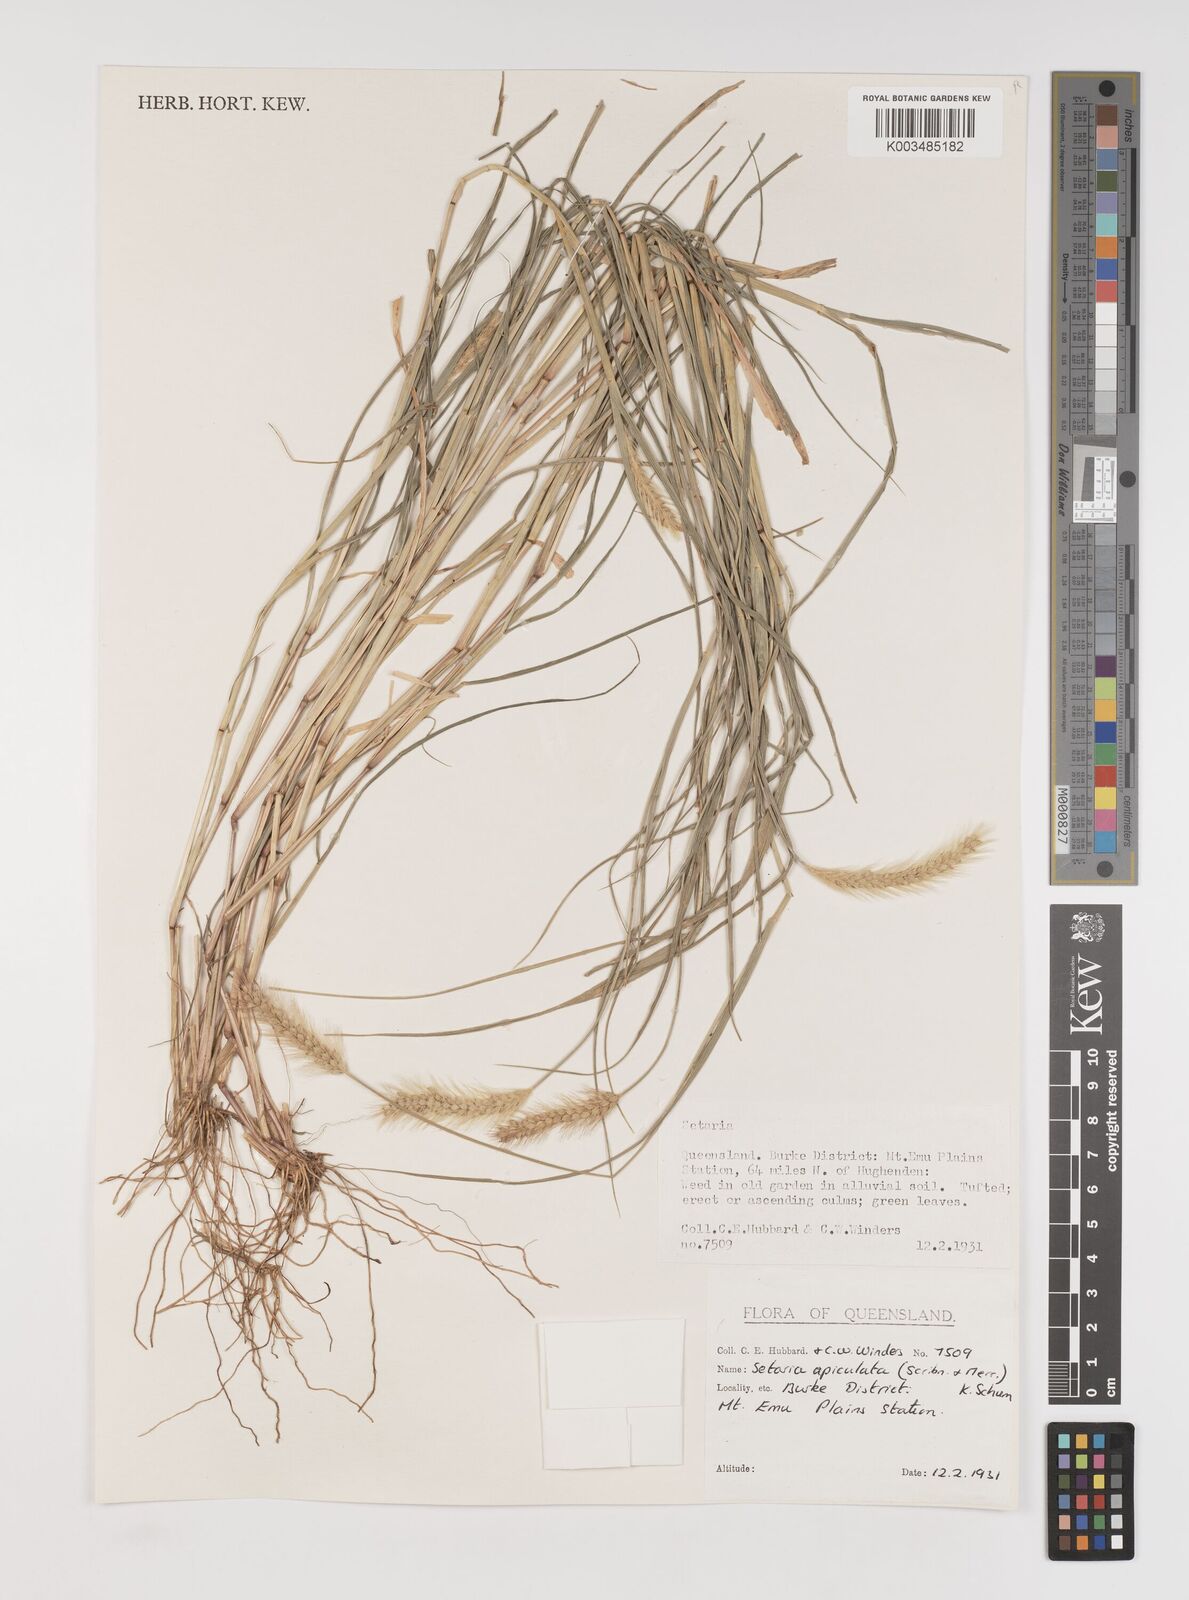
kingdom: Plantae
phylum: Tracheophyta
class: Liliopsida
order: Poales
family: Poaceae
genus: Setaria
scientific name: Setaria apiculata
